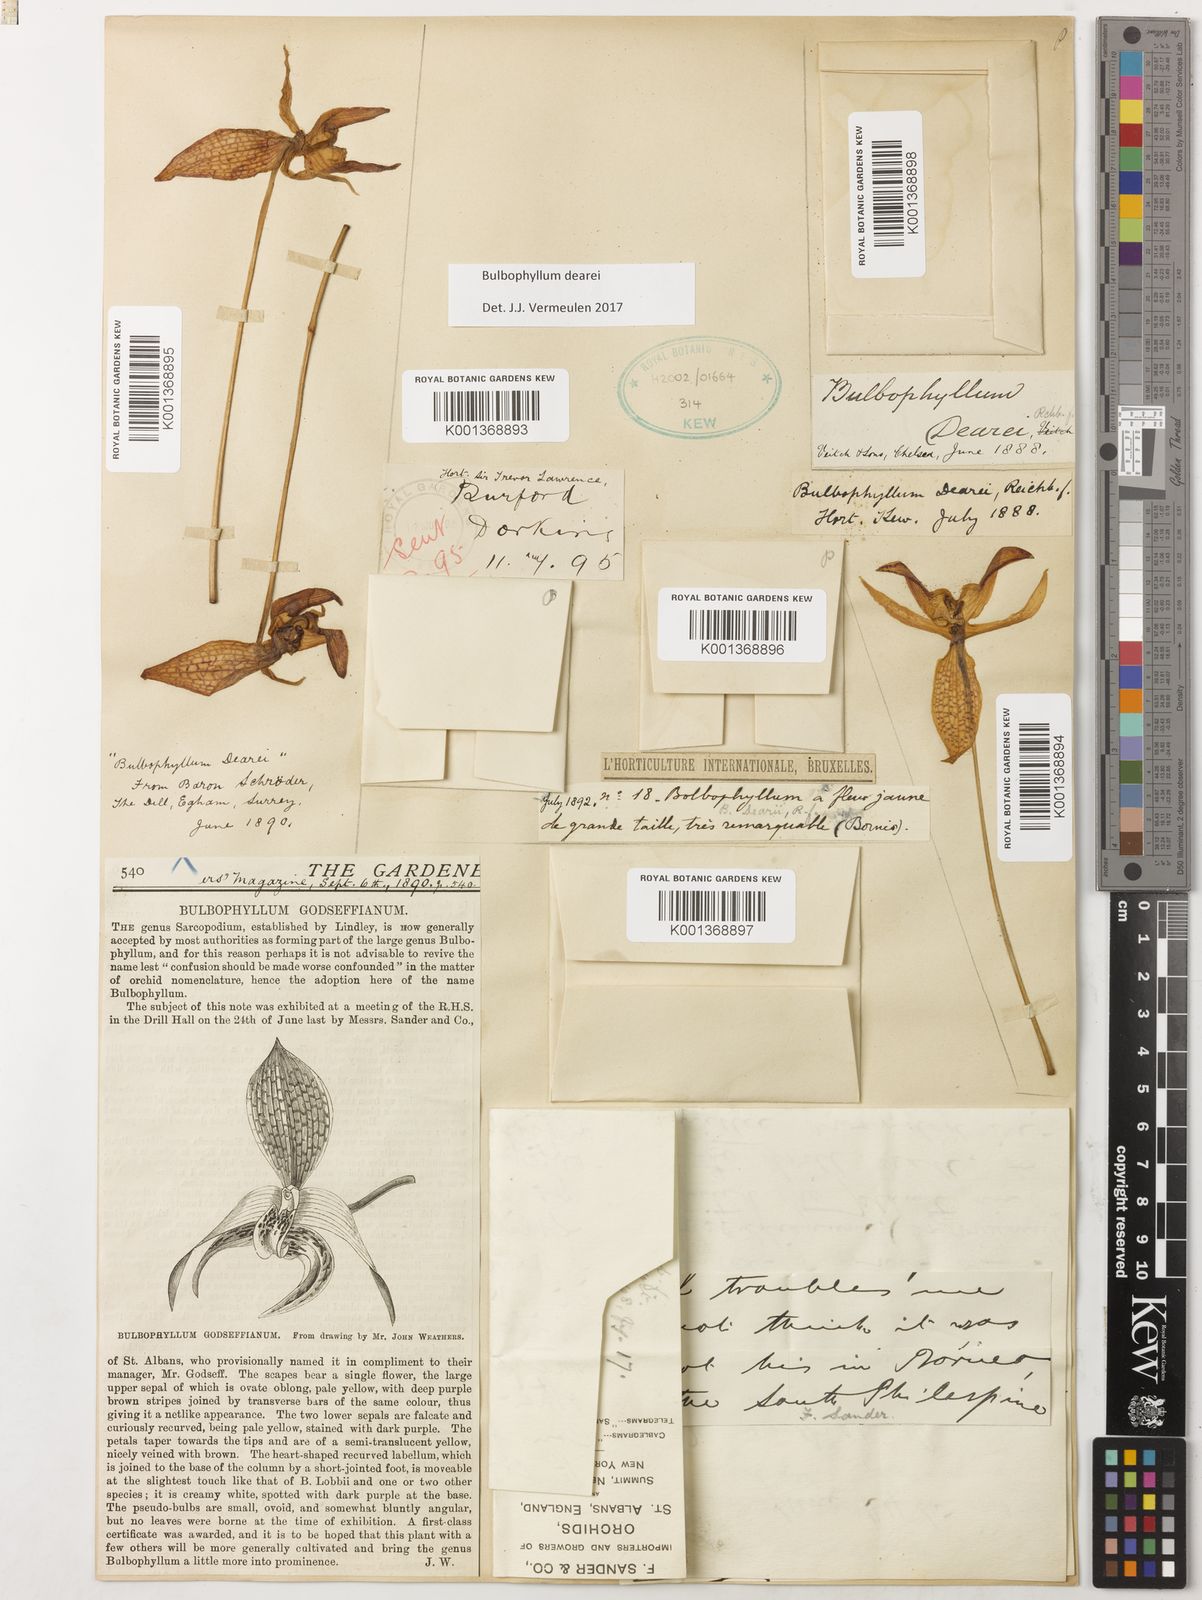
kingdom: Plantae
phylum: Tracheophyta
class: Liliopsida
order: Asparagales
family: Orchidaceae
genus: Bulbophyllum
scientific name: Bulbophyllum dearei
